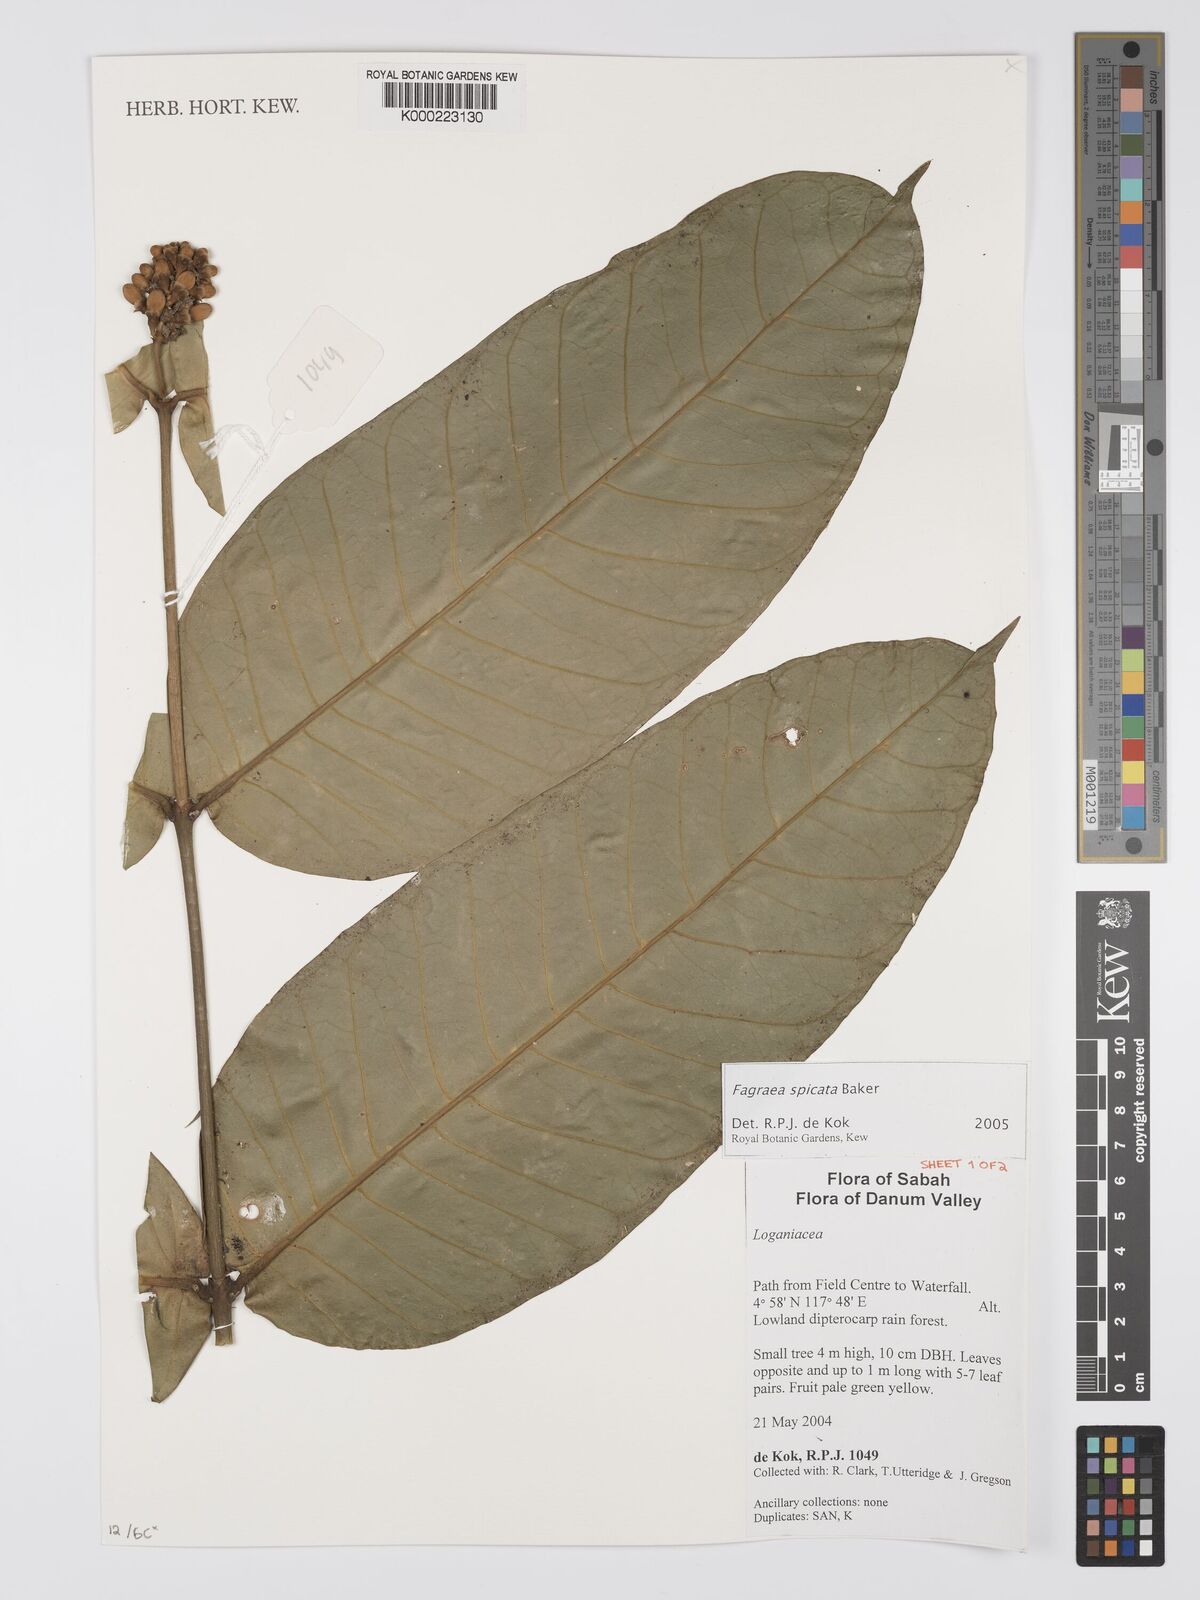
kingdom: Plantae
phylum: Tracheophyta
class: Magnoliopsida
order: Gentianales
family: Gentianaceae
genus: Utania
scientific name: Utania spicata
